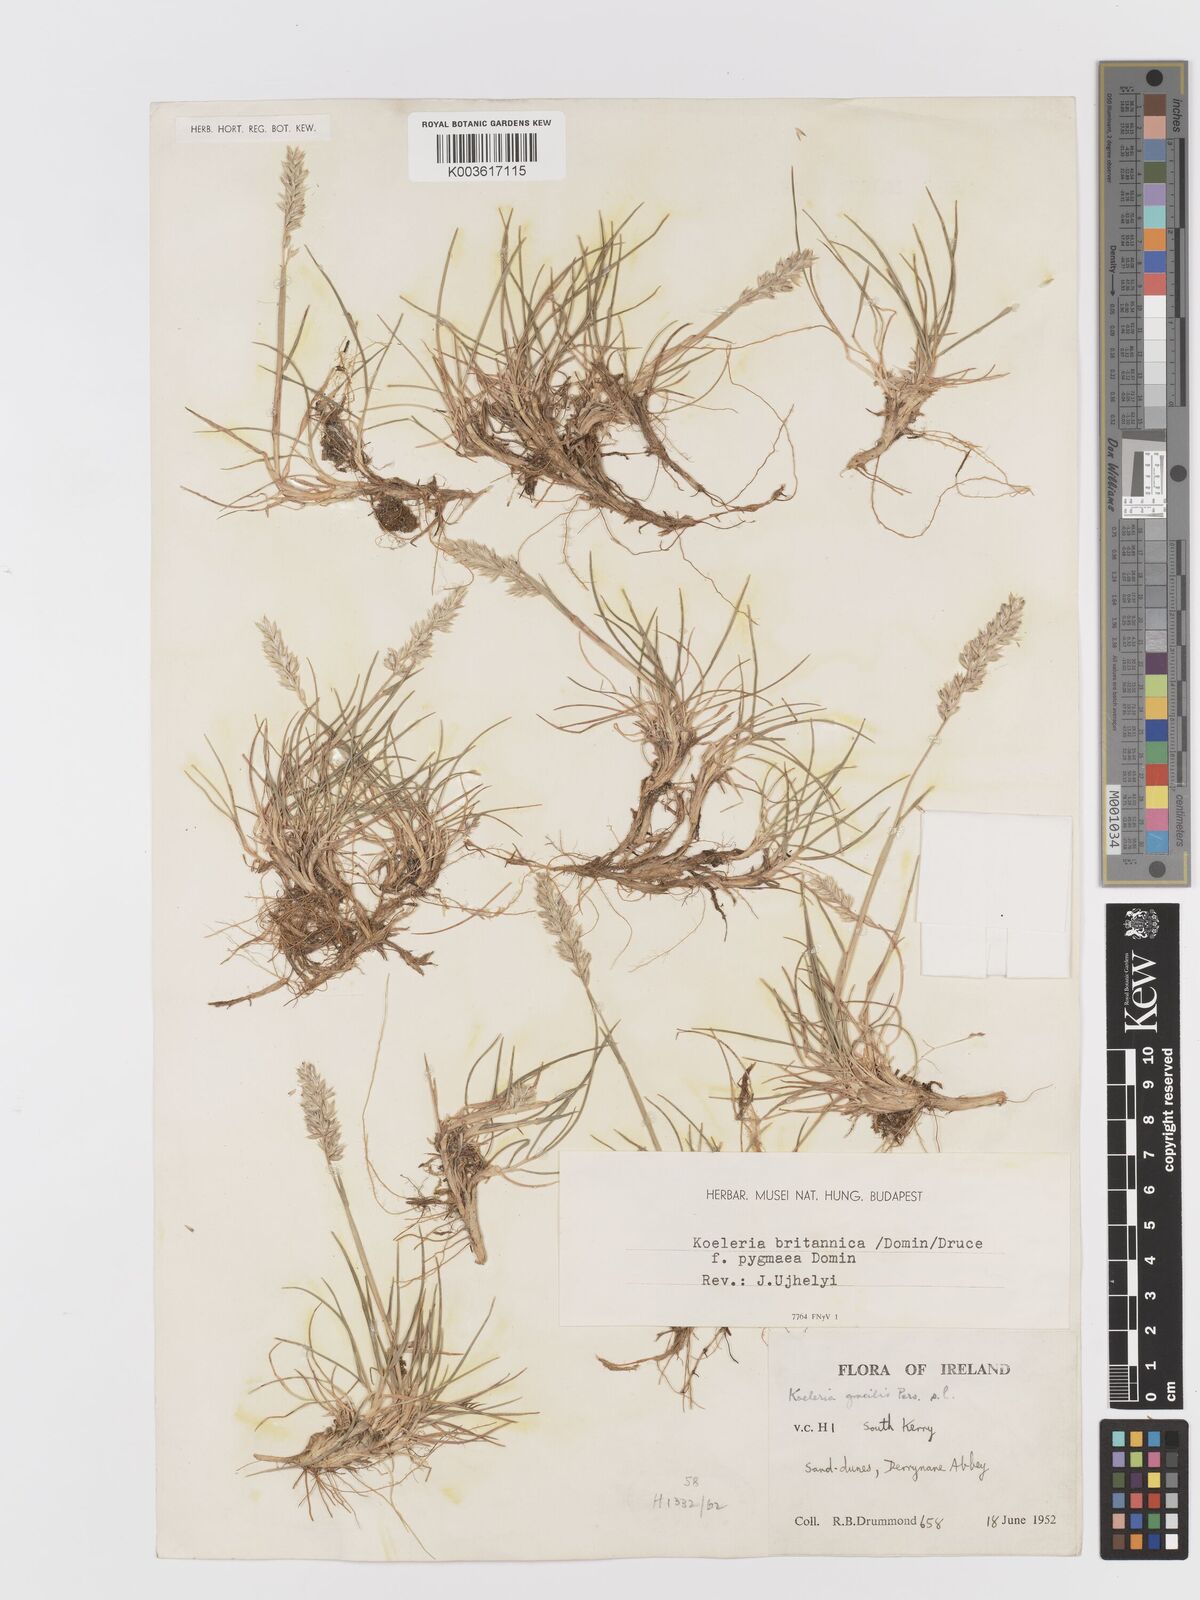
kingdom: Plantae
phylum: Tracheophyta
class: Liliopsida
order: Poales
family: Poaceae
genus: Koeleria
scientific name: Koeleria macrantha
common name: Crested hair-grass
